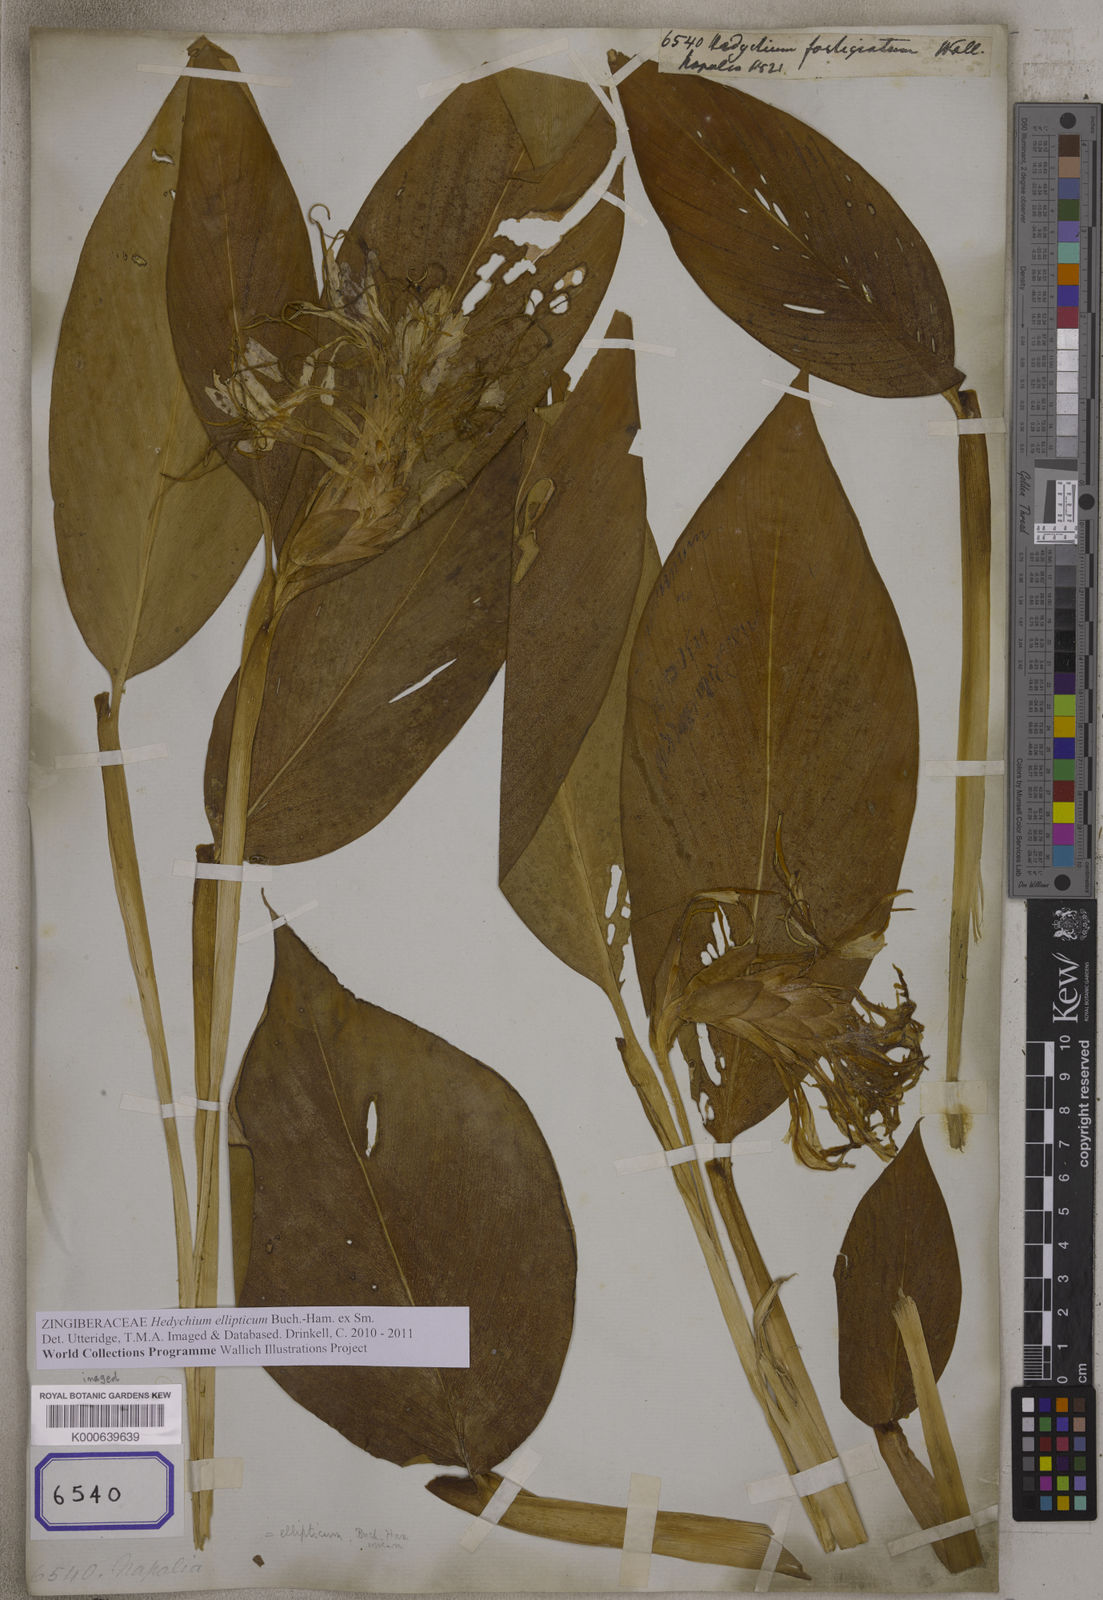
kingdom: Plantae
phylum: Tracheophyta
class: Liliopsida
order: Zingiberales
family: Zingiberaceae
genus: Hedychium
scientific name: Hedychium
